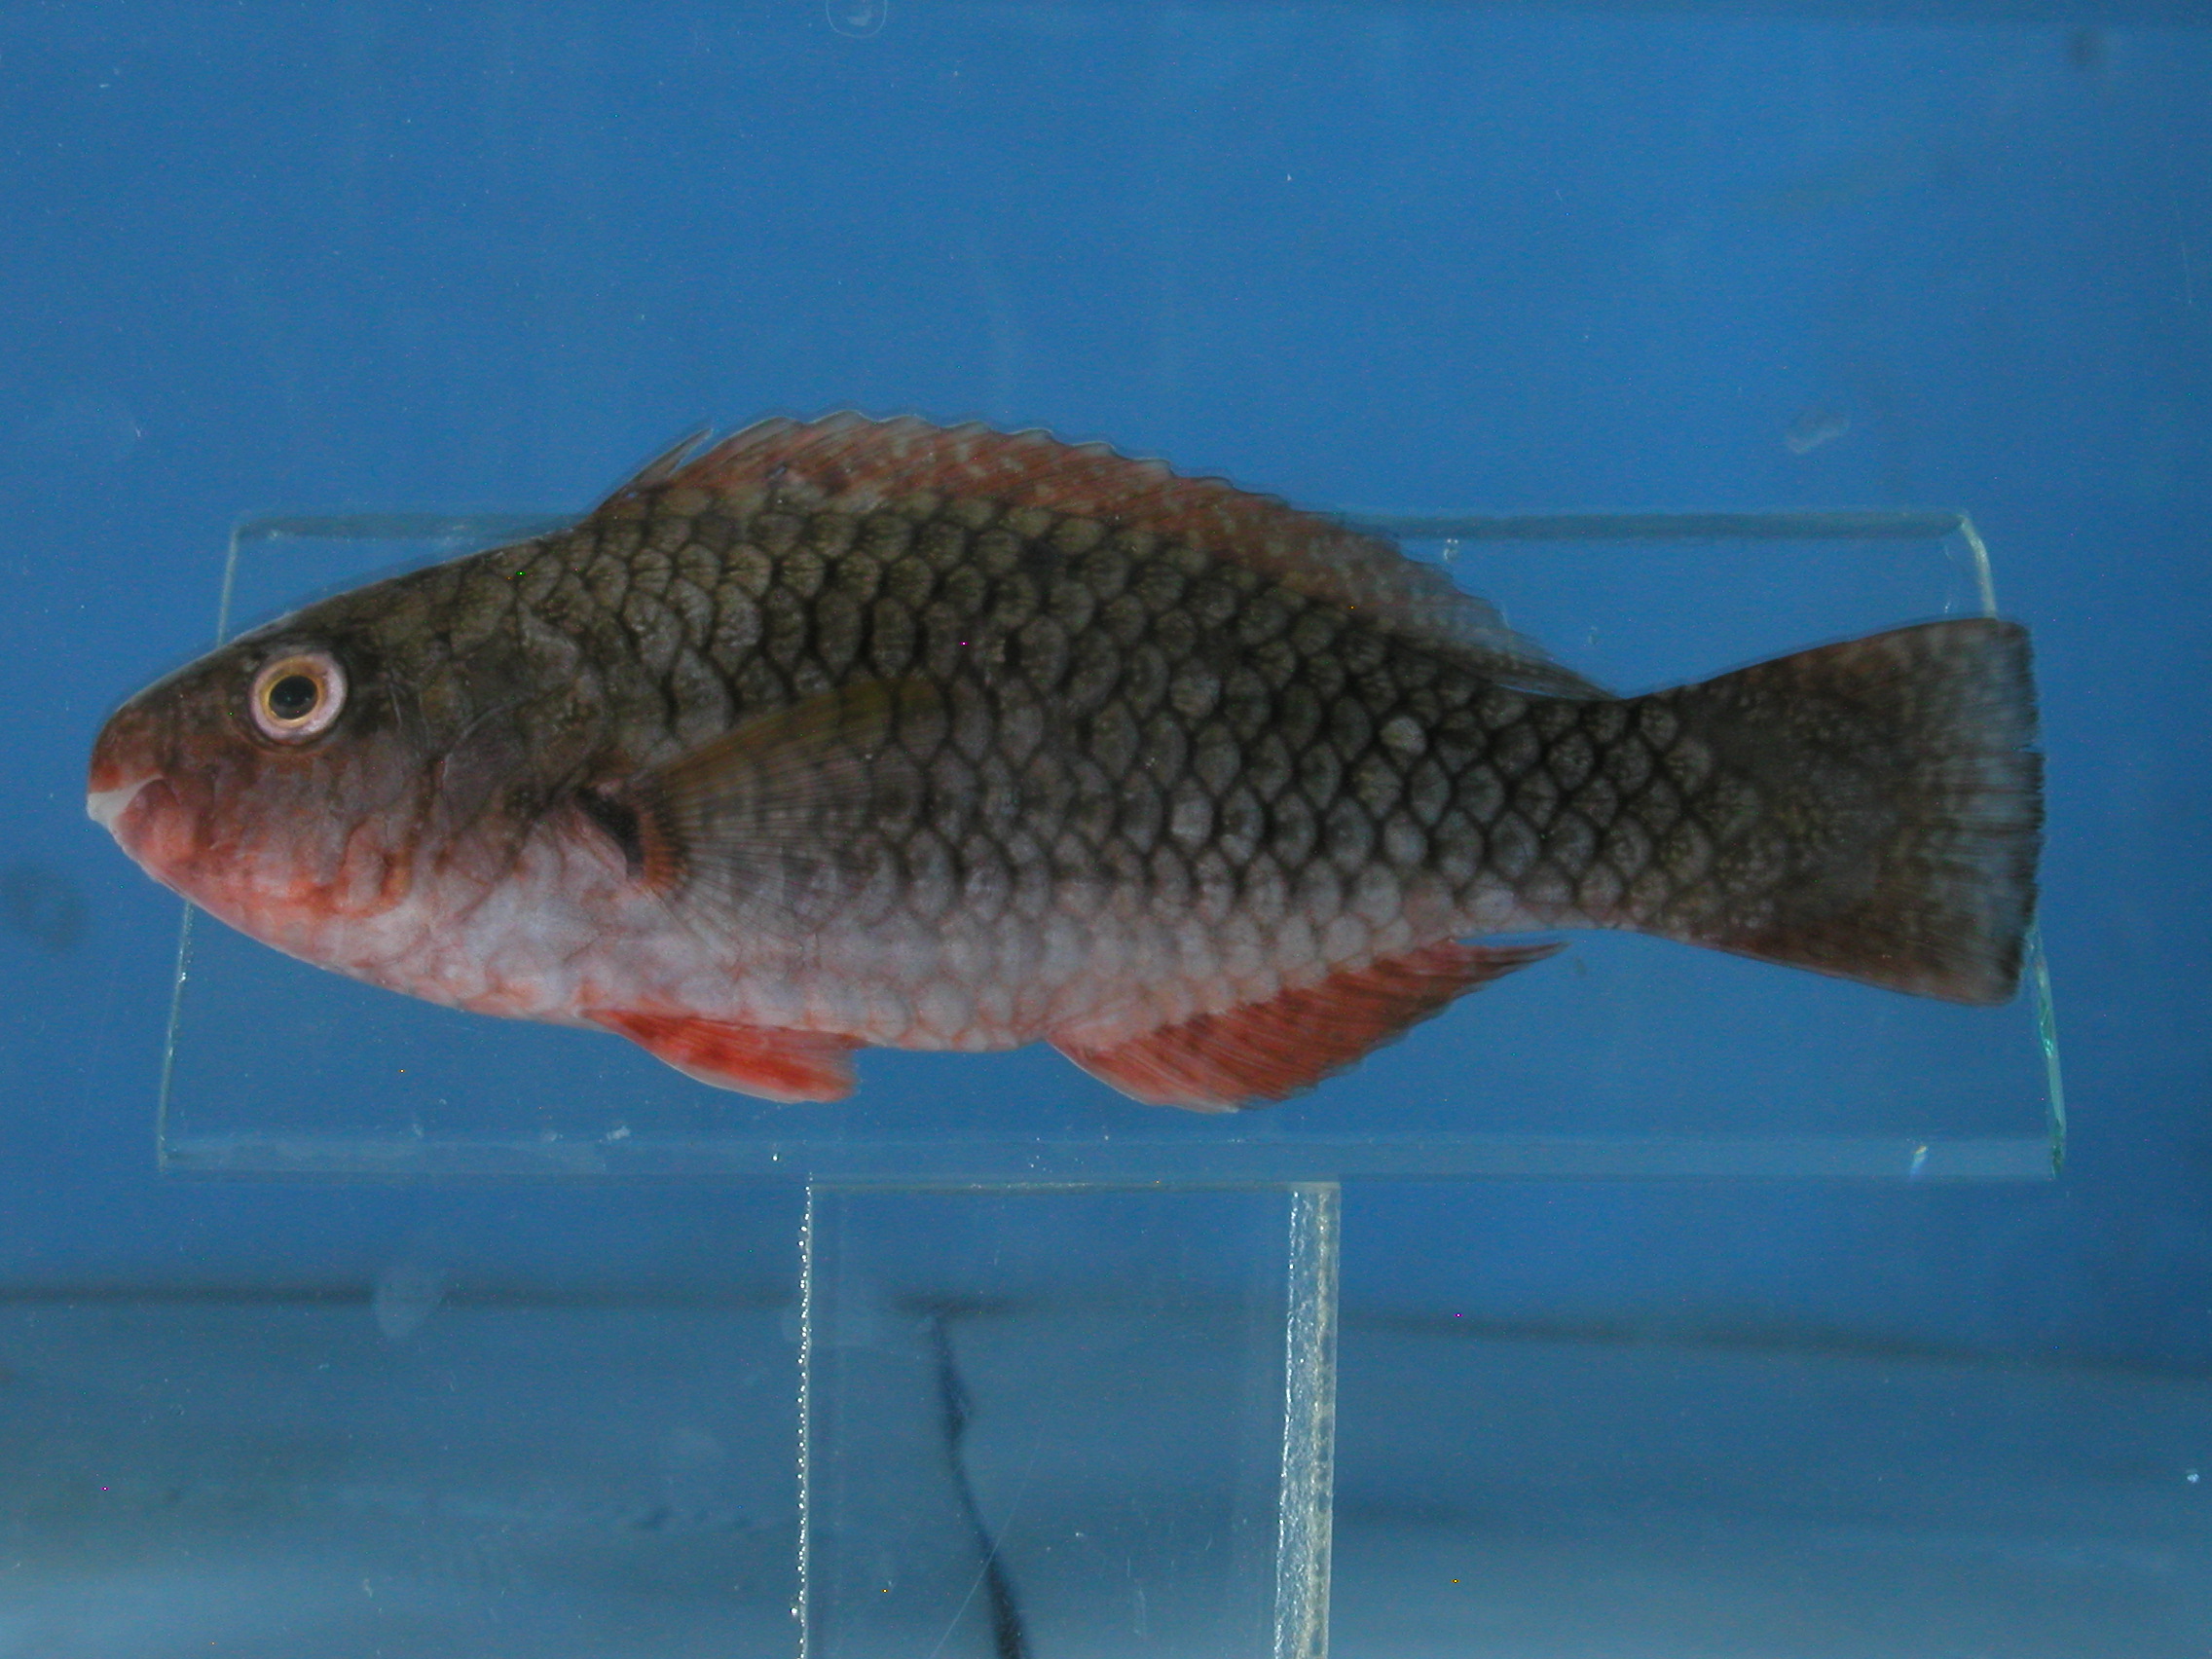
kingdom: Animalia
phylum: Chordata
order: Perciformes
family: Scaridae
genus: Scarus
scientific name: Scarus rubroviolaceus
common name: Ember parrotfish
